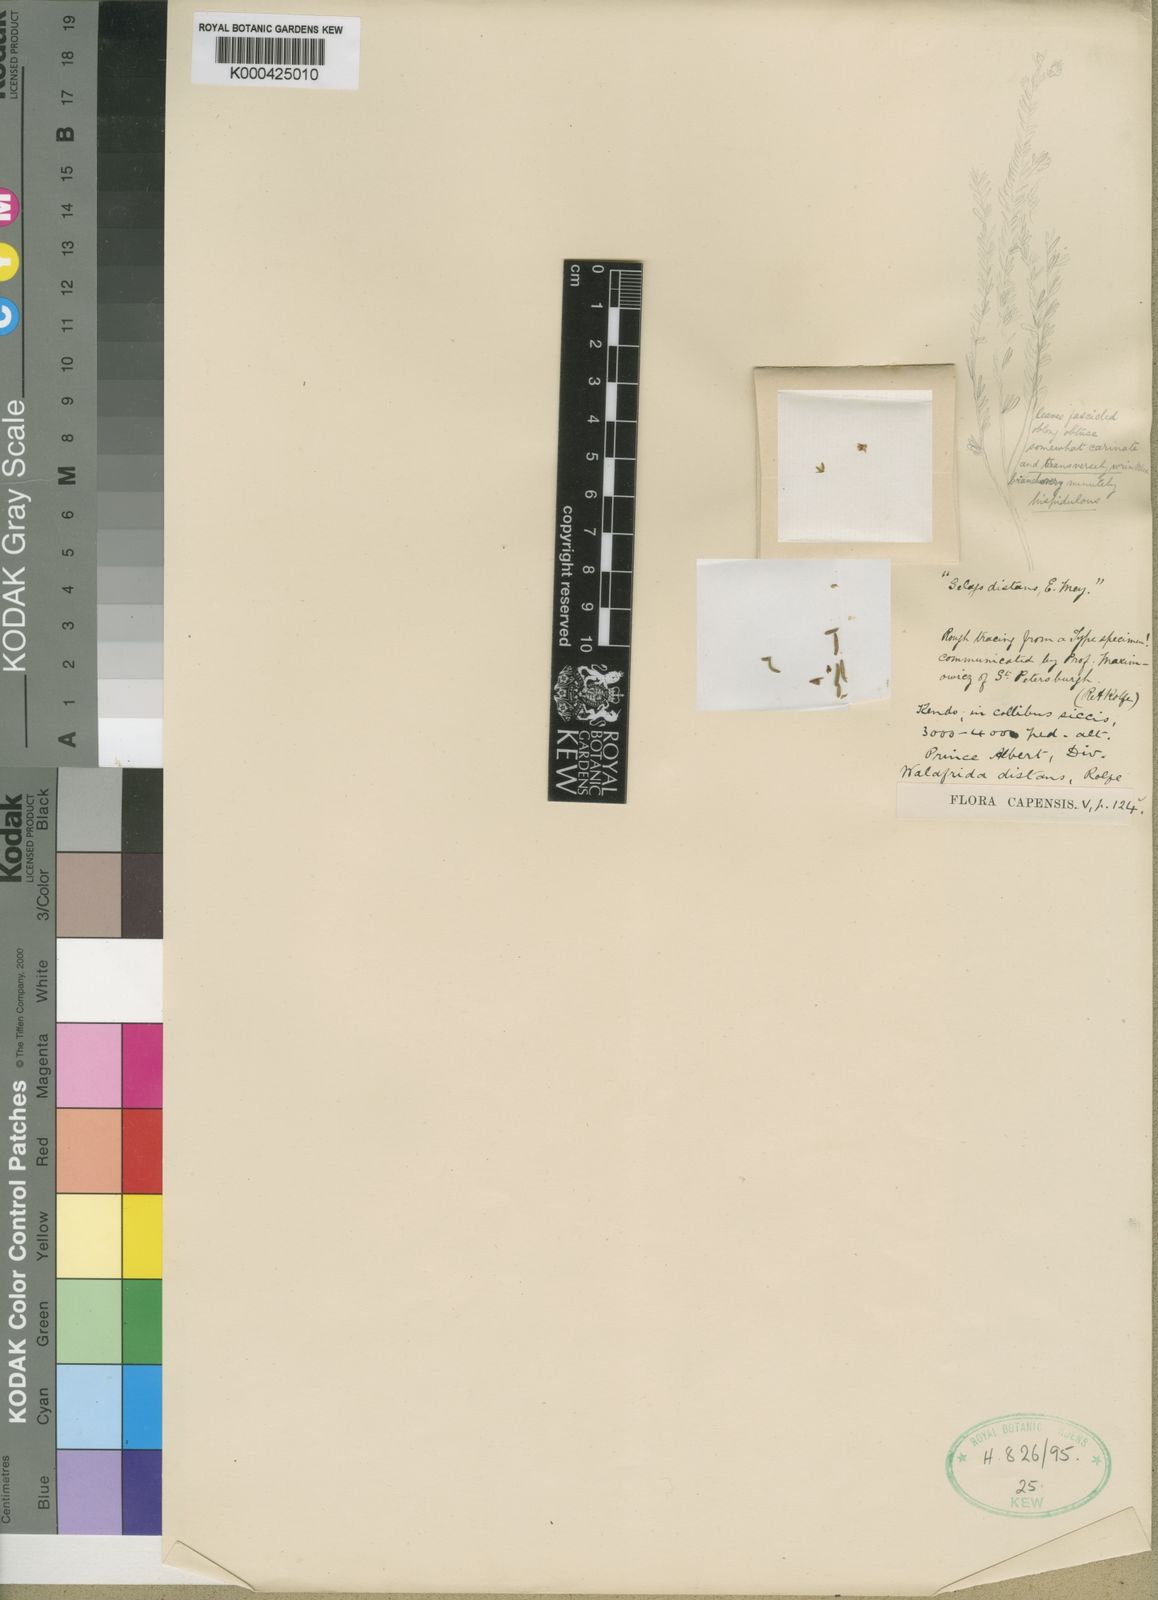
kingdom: Plantae
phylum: Tracheophyta
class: Magnoliopsida
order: Lamiales
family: Scrophulariaceae
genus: Selago
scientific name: Selago distans
